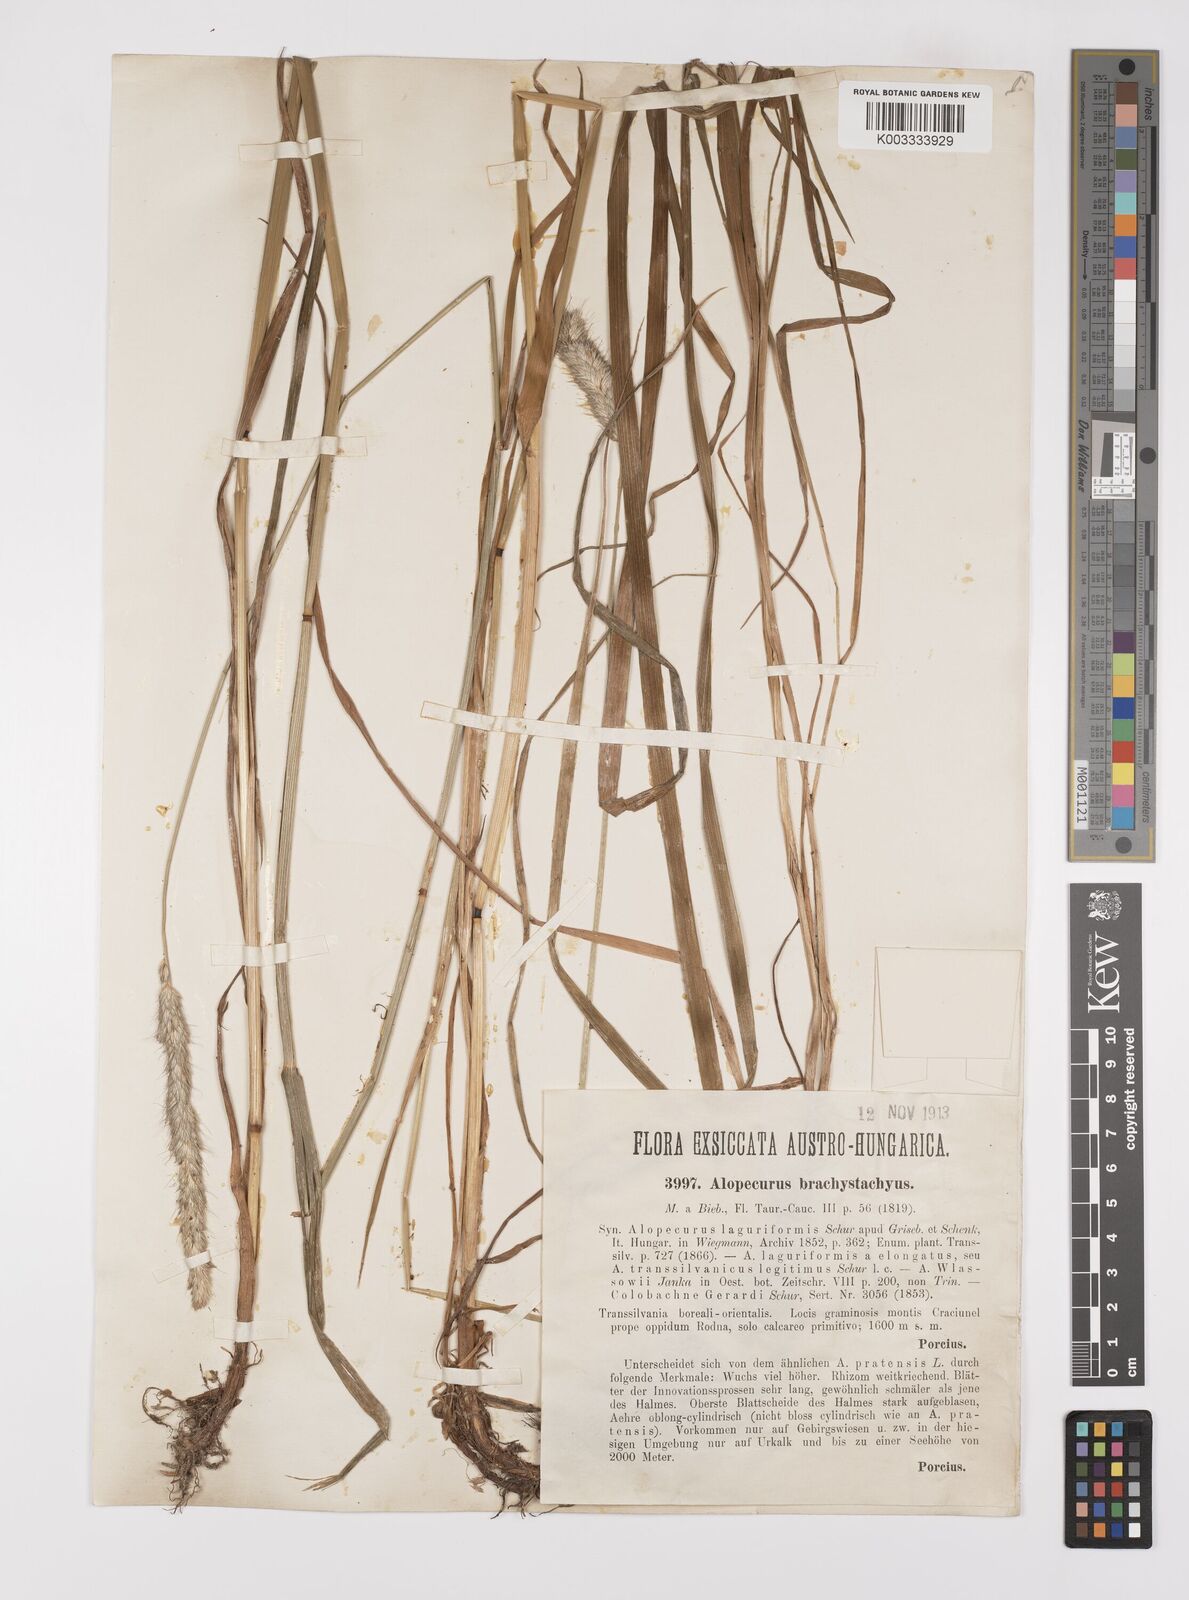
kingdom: Plantae
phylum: Tracheophyta
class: Liliopsida
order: Poales
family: Poaceae
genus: Alopecurus
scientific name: Alopecurus pratensis
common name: Meadow foxtail
